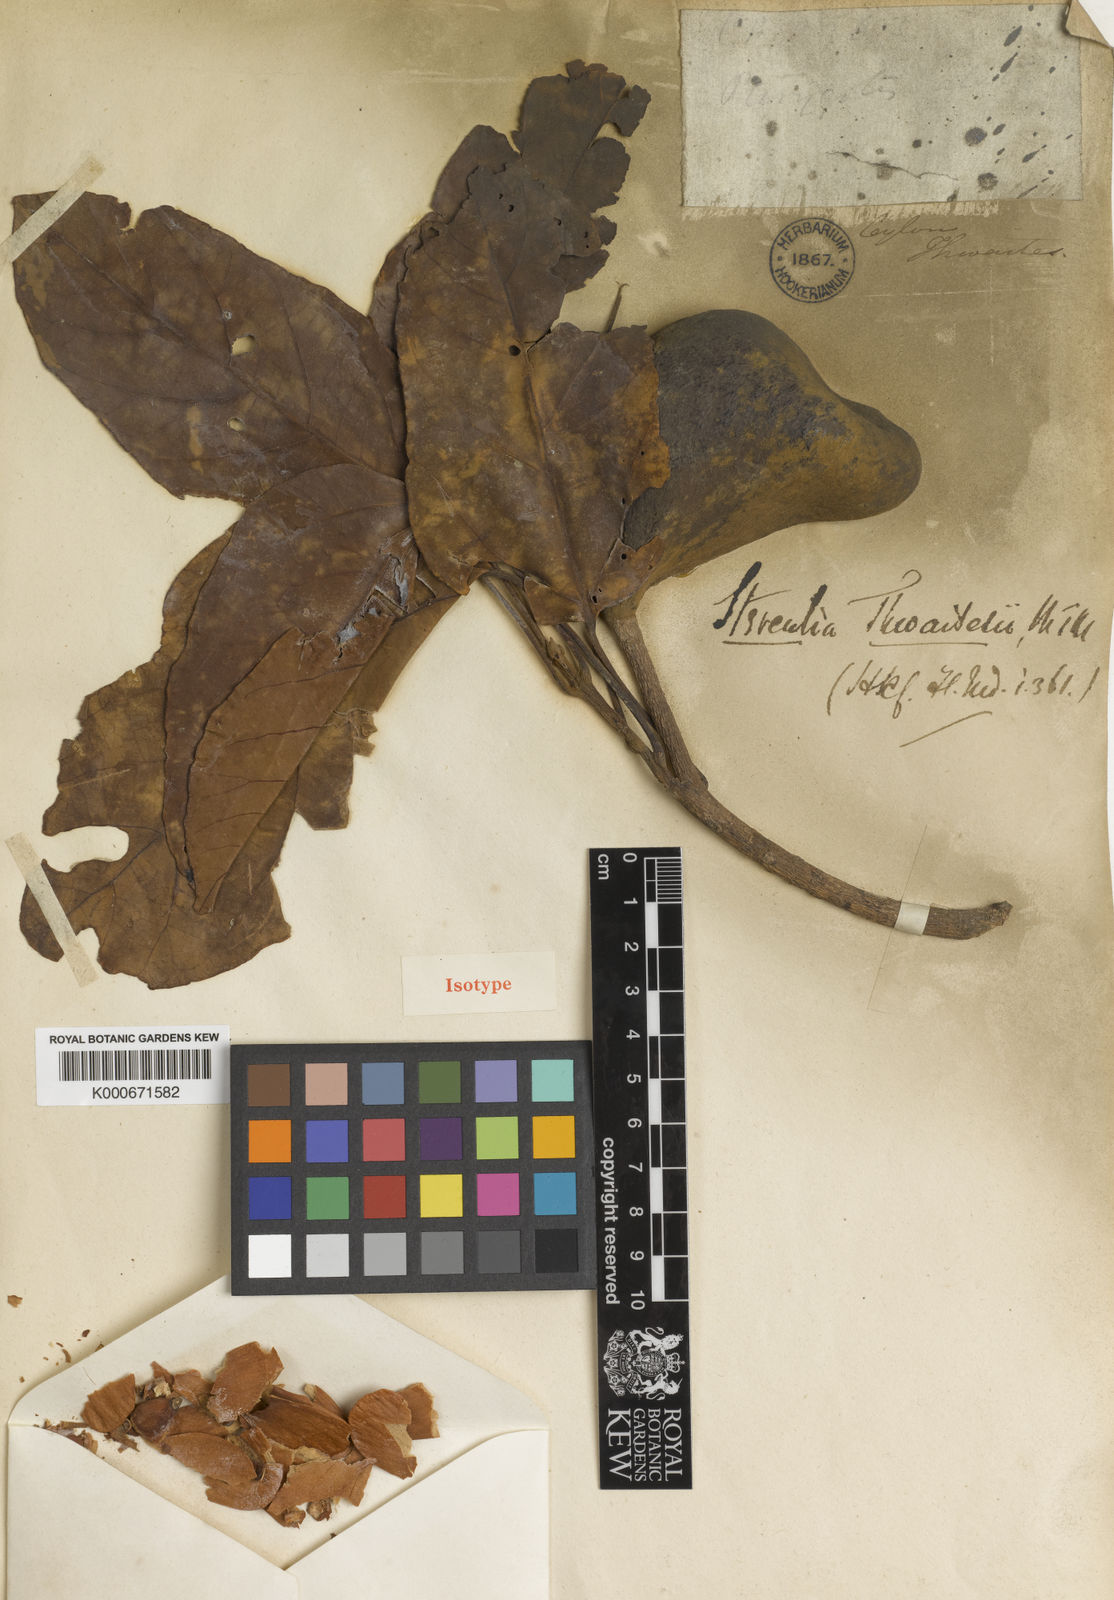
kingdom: Plantae
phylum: Tracheophyta
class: Magnoliopsida
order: Malvales
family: Malvaceae
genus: Pterygota
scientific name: Pterygota thwaitesii
